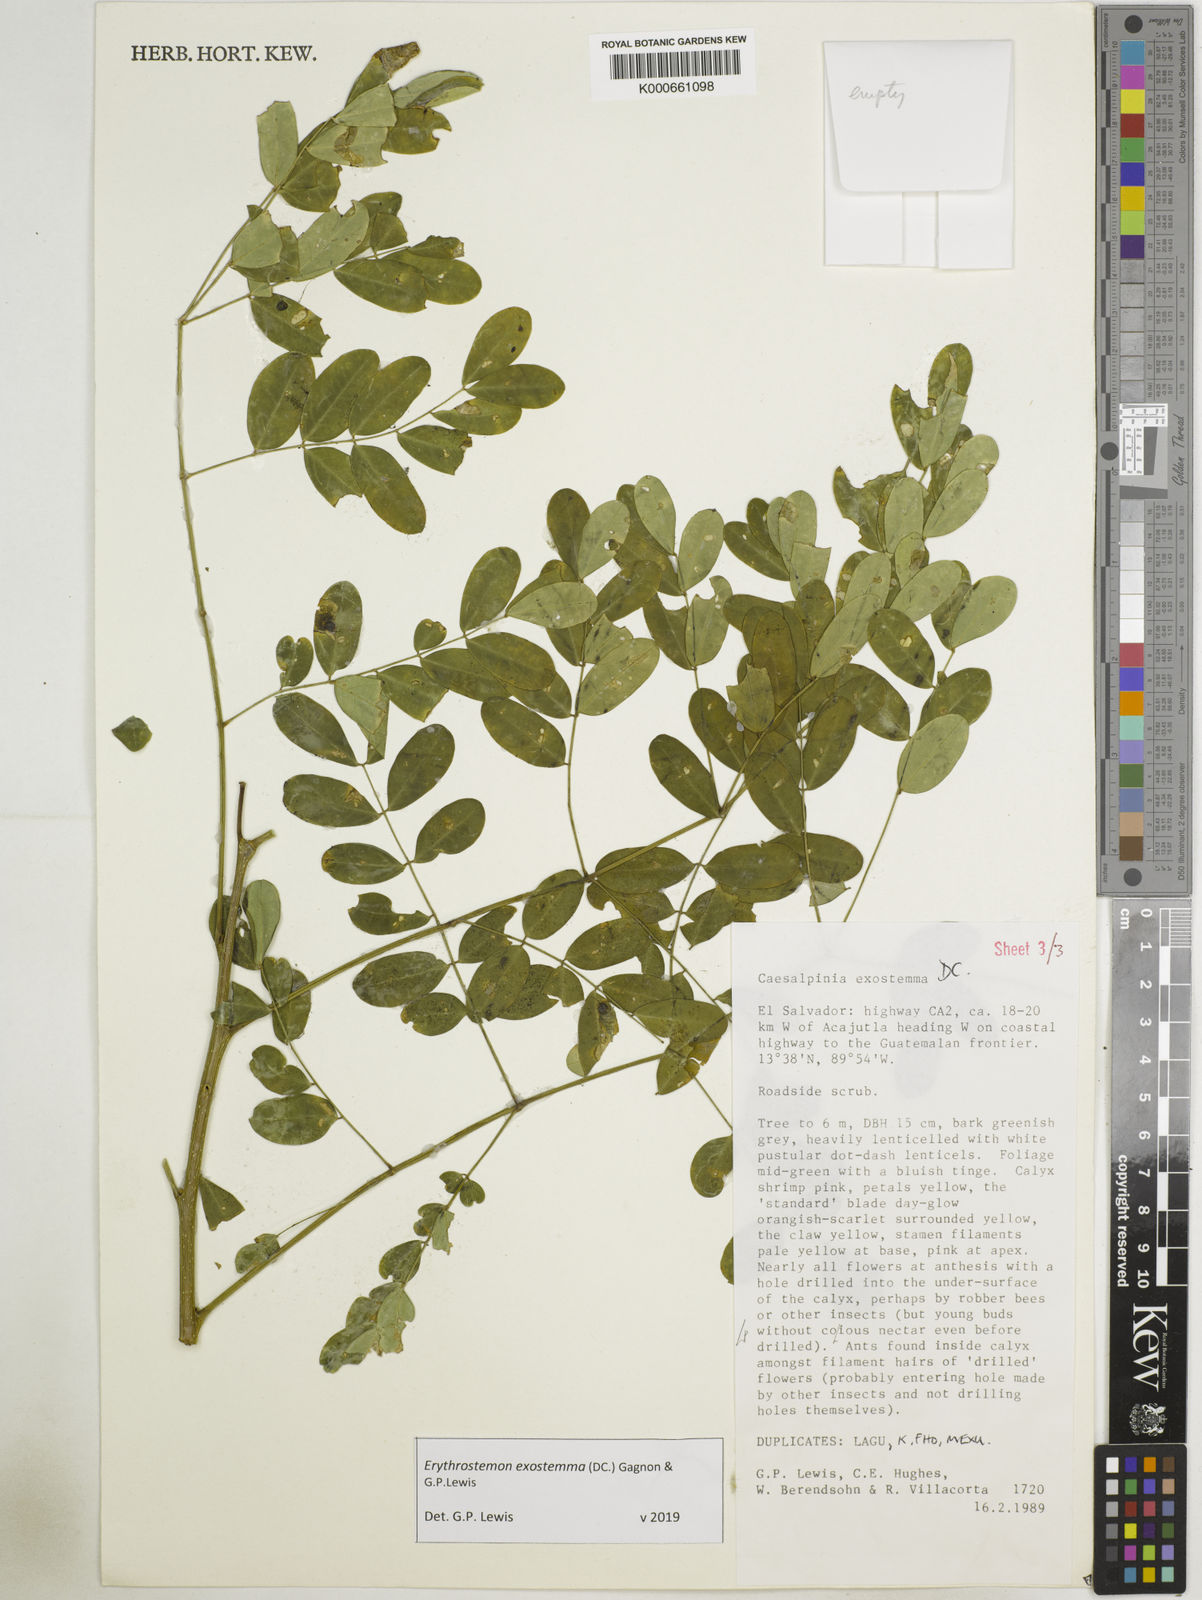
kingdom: Plantae
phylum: Tracheophyta
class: Magnoliopsida
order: Fabales
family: Fabaceae
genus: Erythrostemon
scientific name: Erythrostemon exostemma
